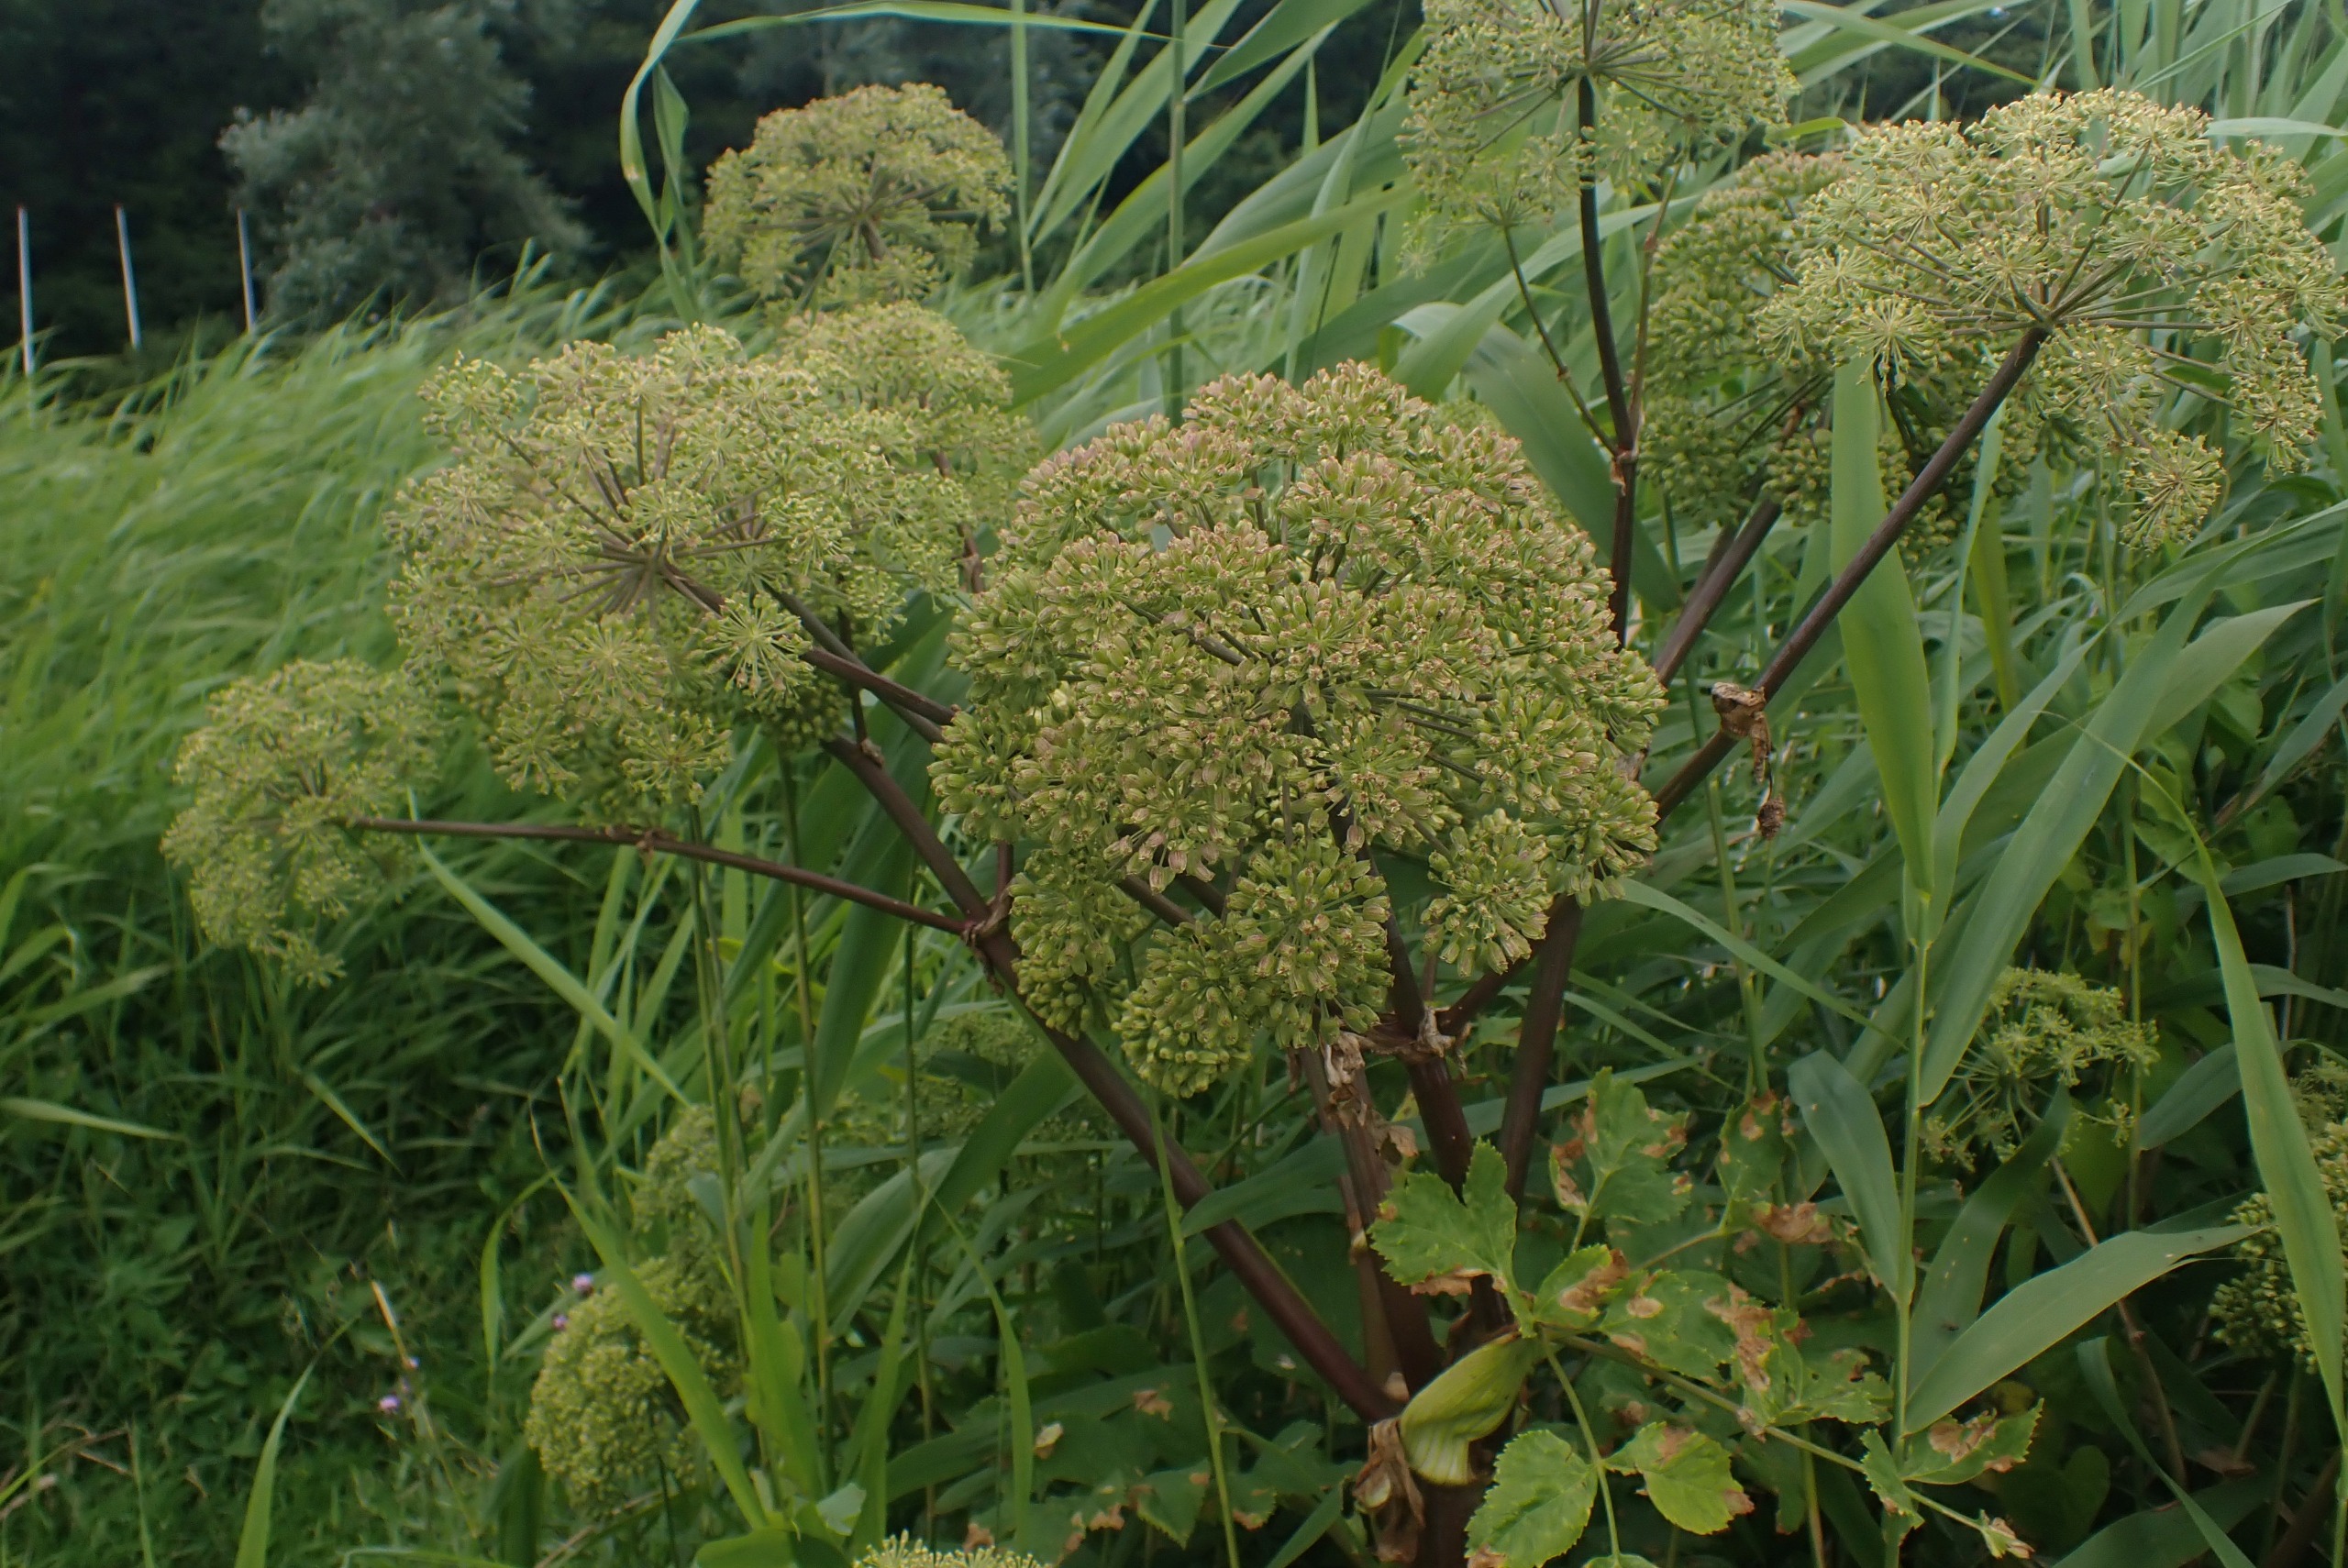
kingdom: Plantae
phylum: Tracheophyta
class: Magnoliopsida
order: Apiales
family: Apiaceae
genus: Angelica
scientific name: Angelica archangelica
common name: Kvan
